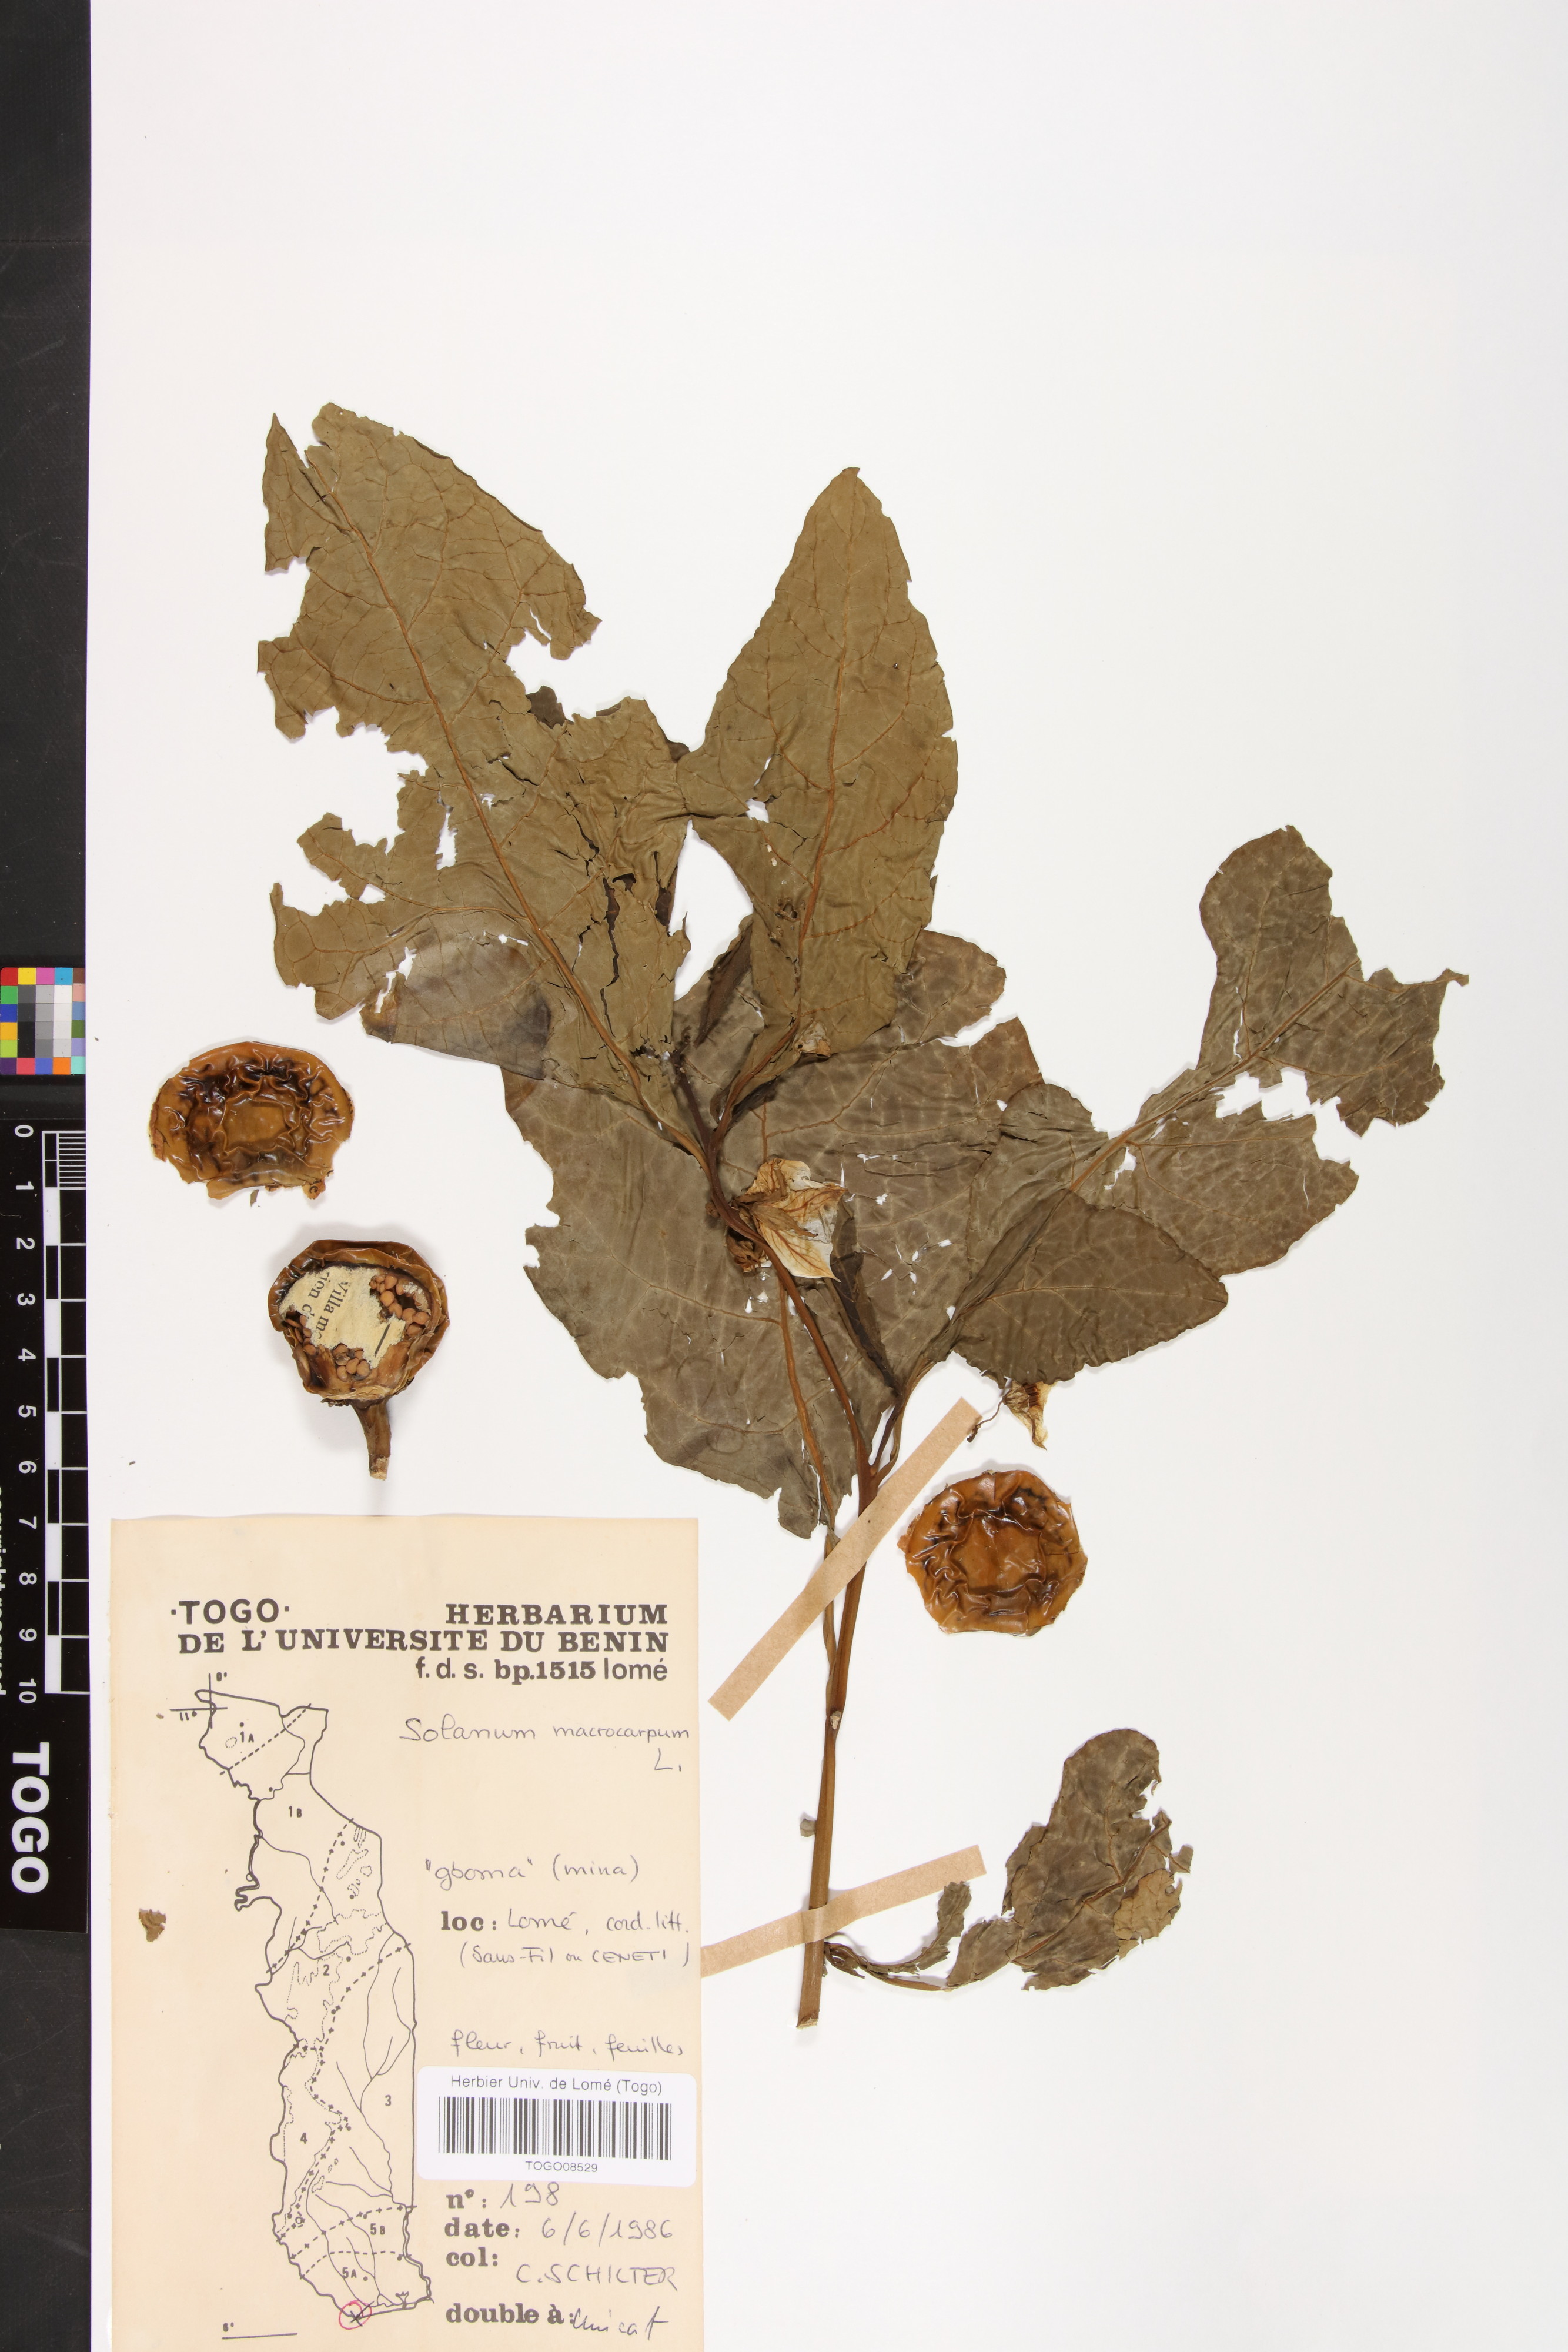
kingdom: Plantae
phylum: Tracheophyta
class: Magnoliopsida
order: Solanales
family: Solanaceae
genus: Solanum
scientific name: Solanum macrocarpon
